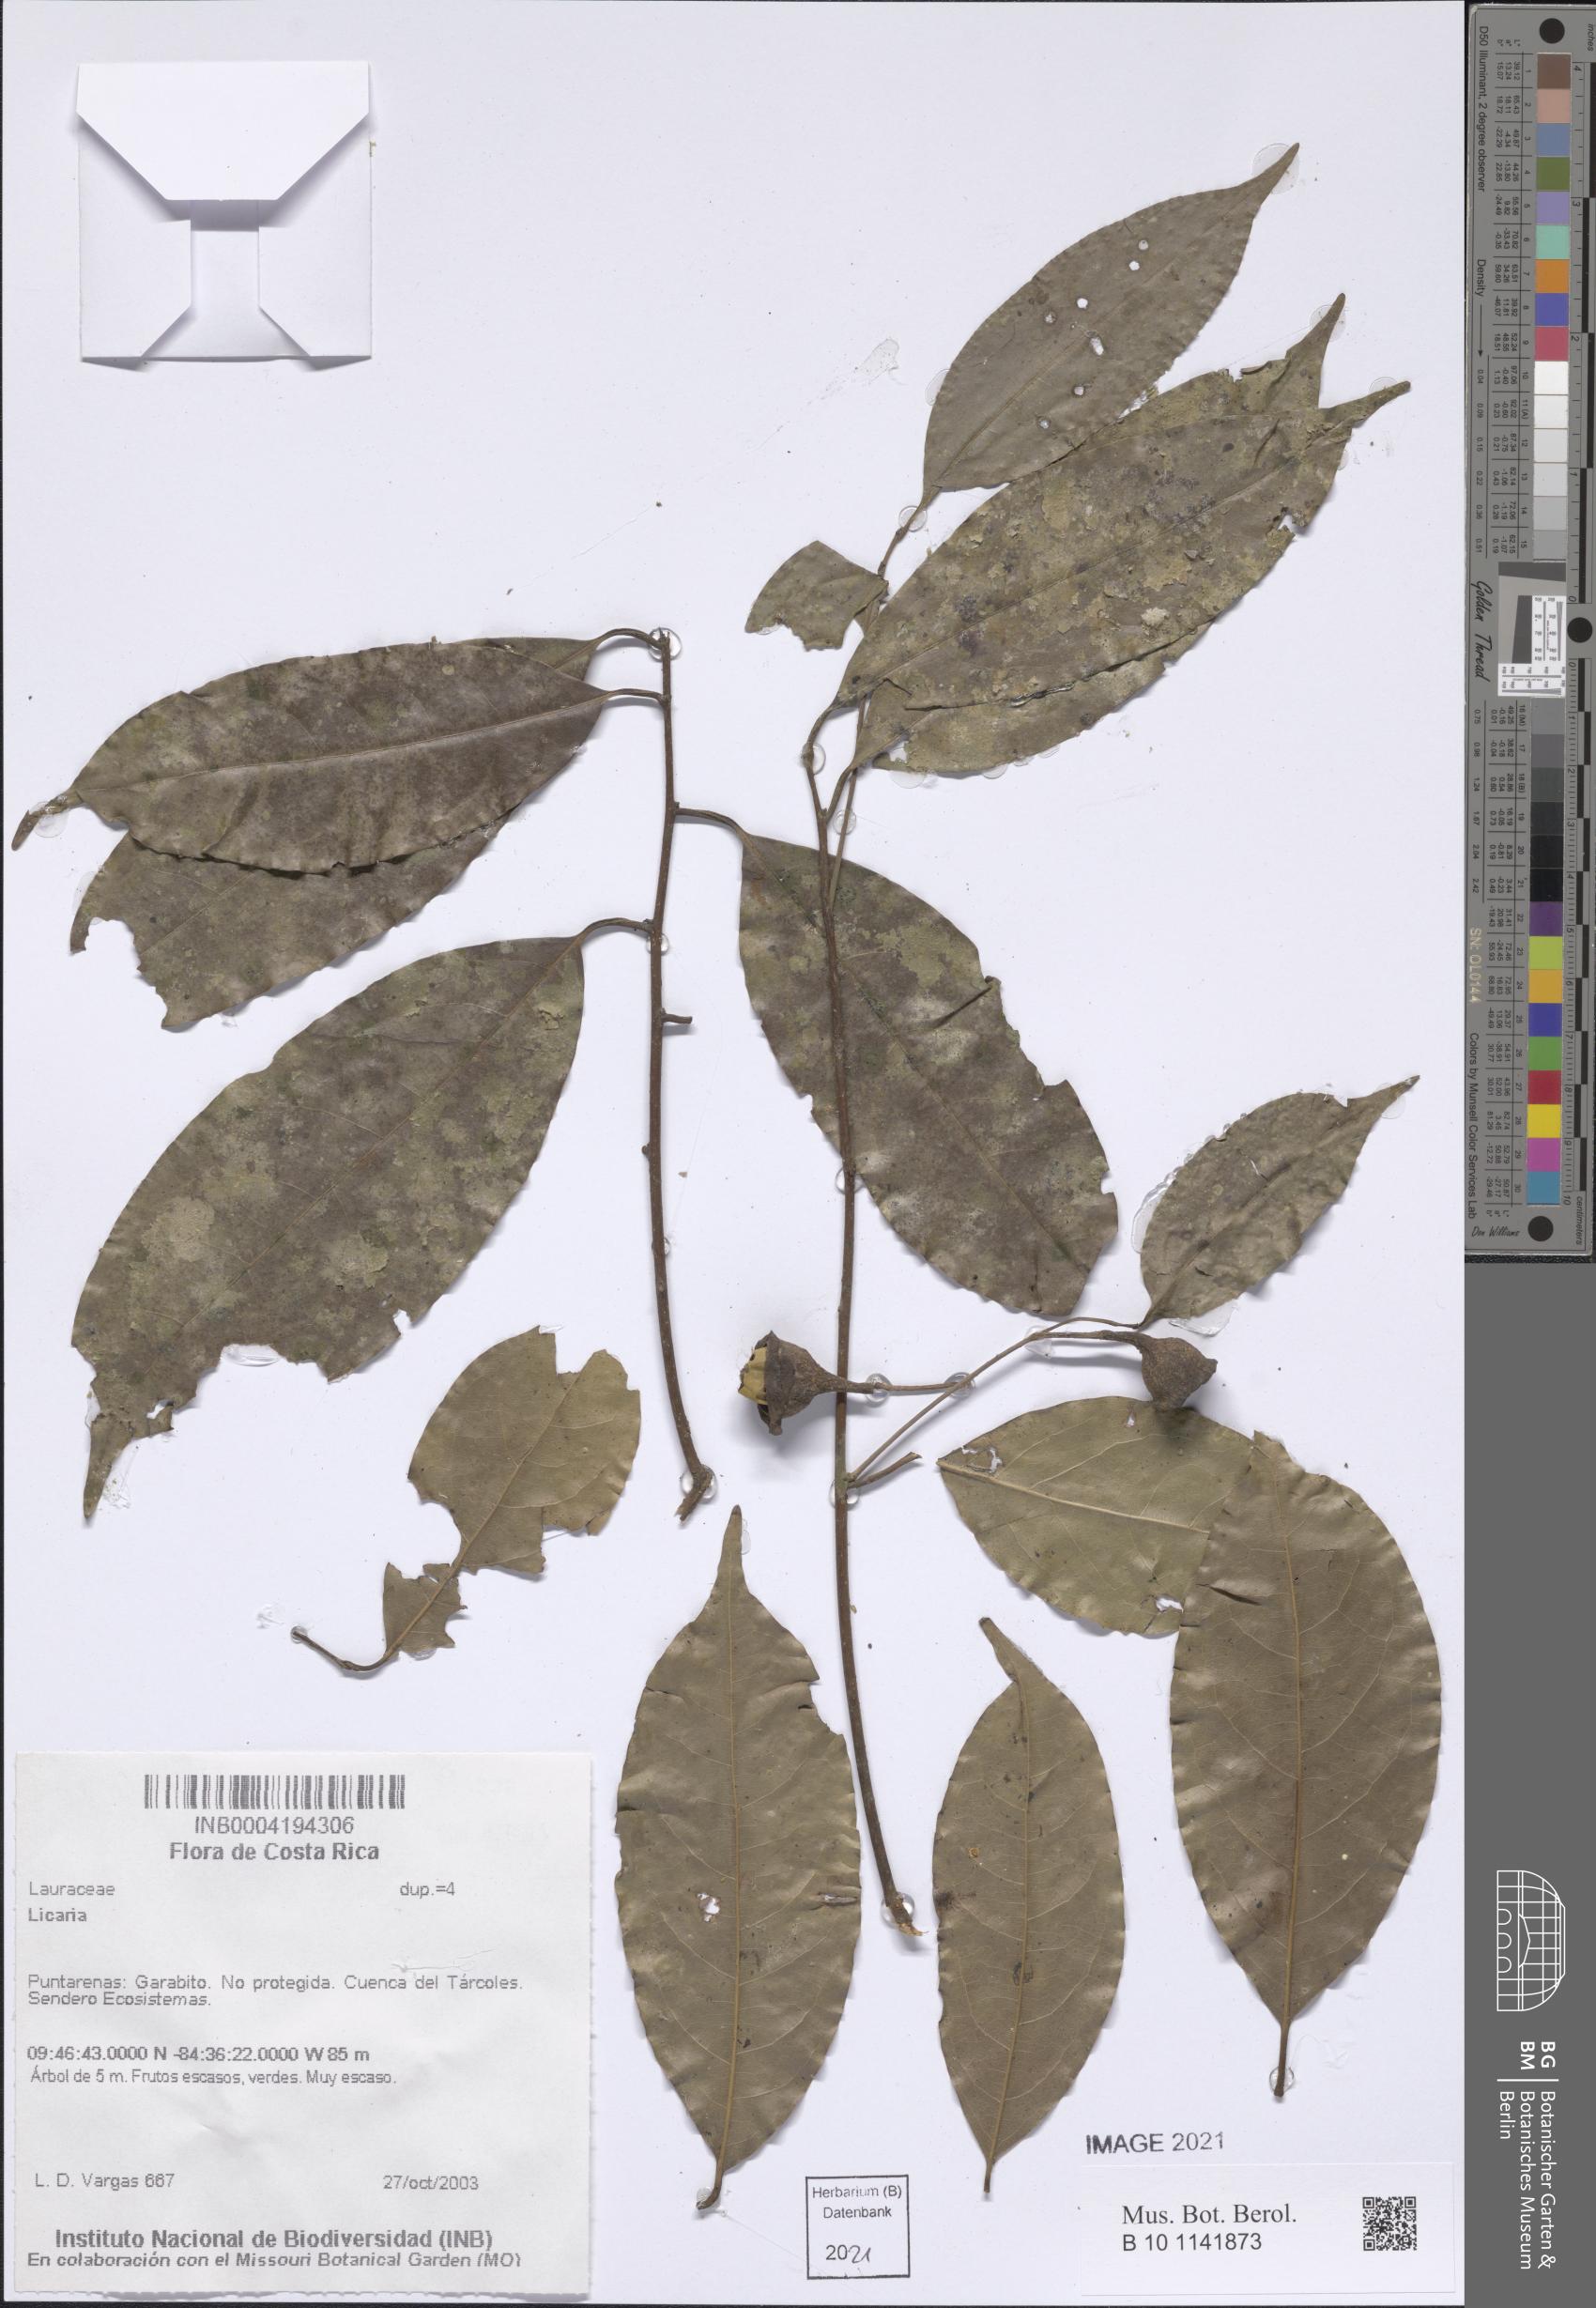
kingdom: Plantae
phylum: Tracheophyta
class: Magnoliopsida
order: Laurales
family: Lauraceae
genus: Licaria
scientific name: Licaria
